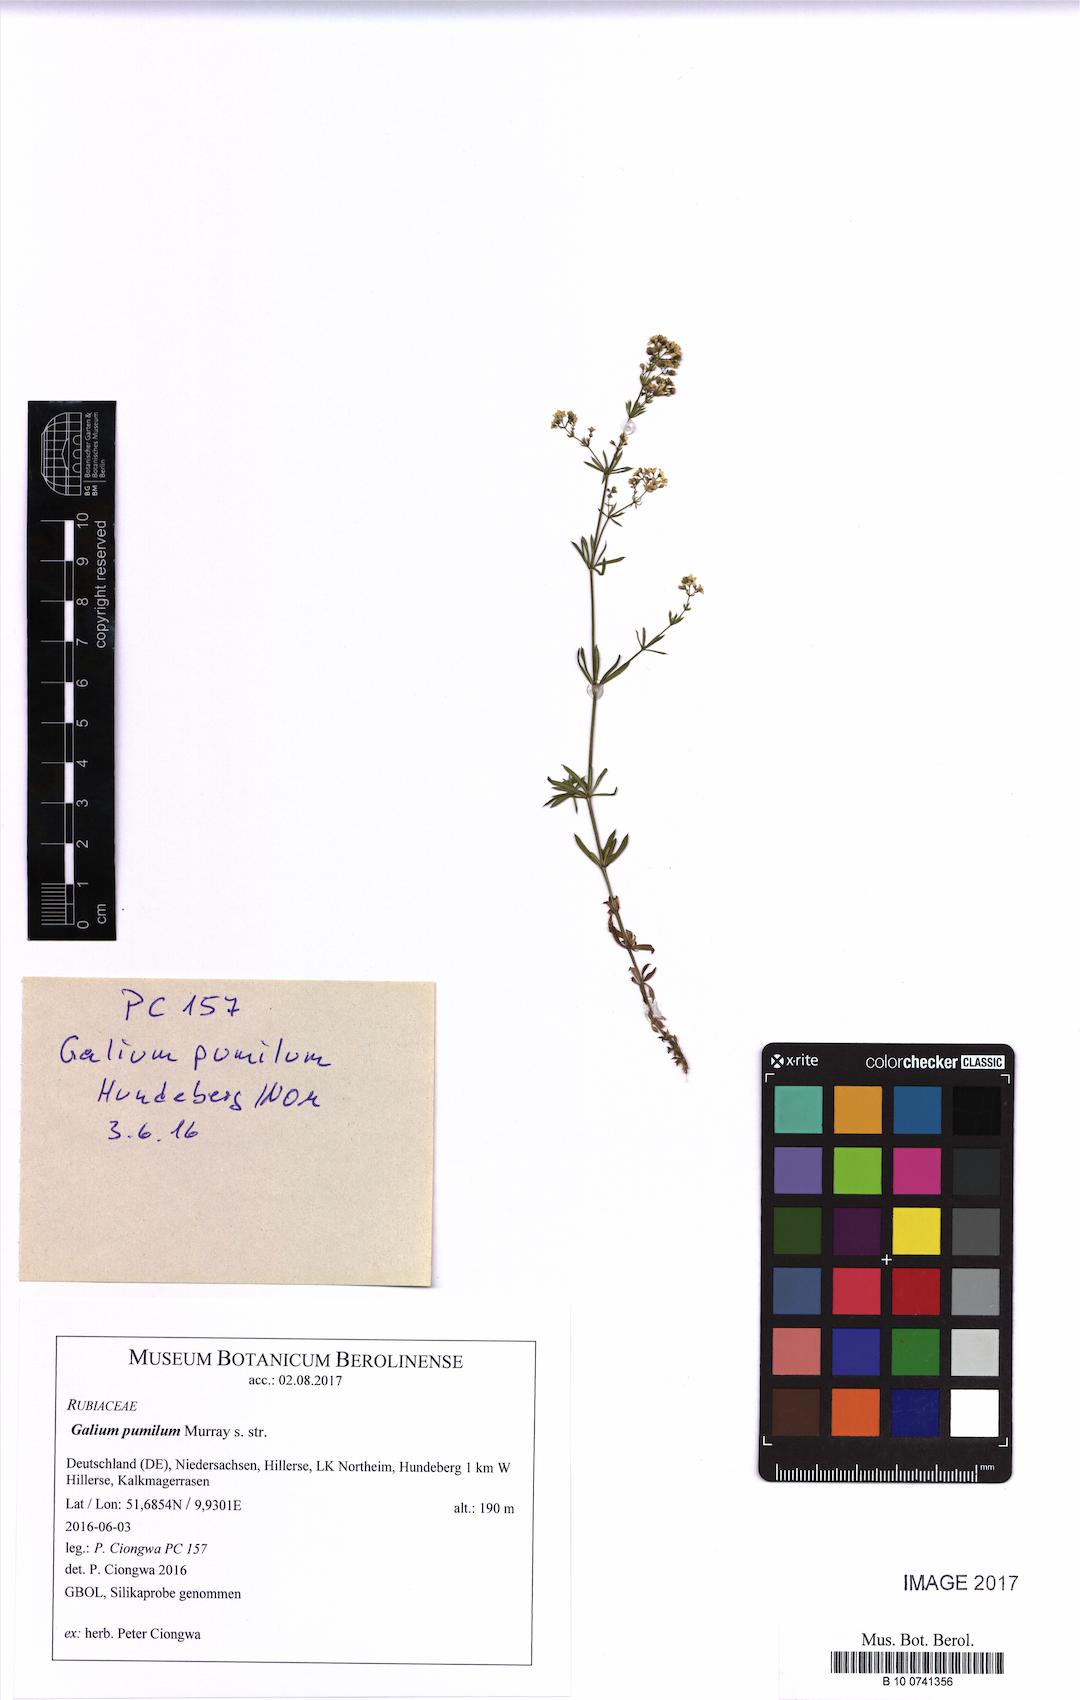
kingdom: Plantae
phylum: Tracheophyta
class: Magnoliopsida
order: Gentianales
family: Rubiaceae
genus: Galium
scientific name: Galium pumilum
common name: Slender bedstraw
